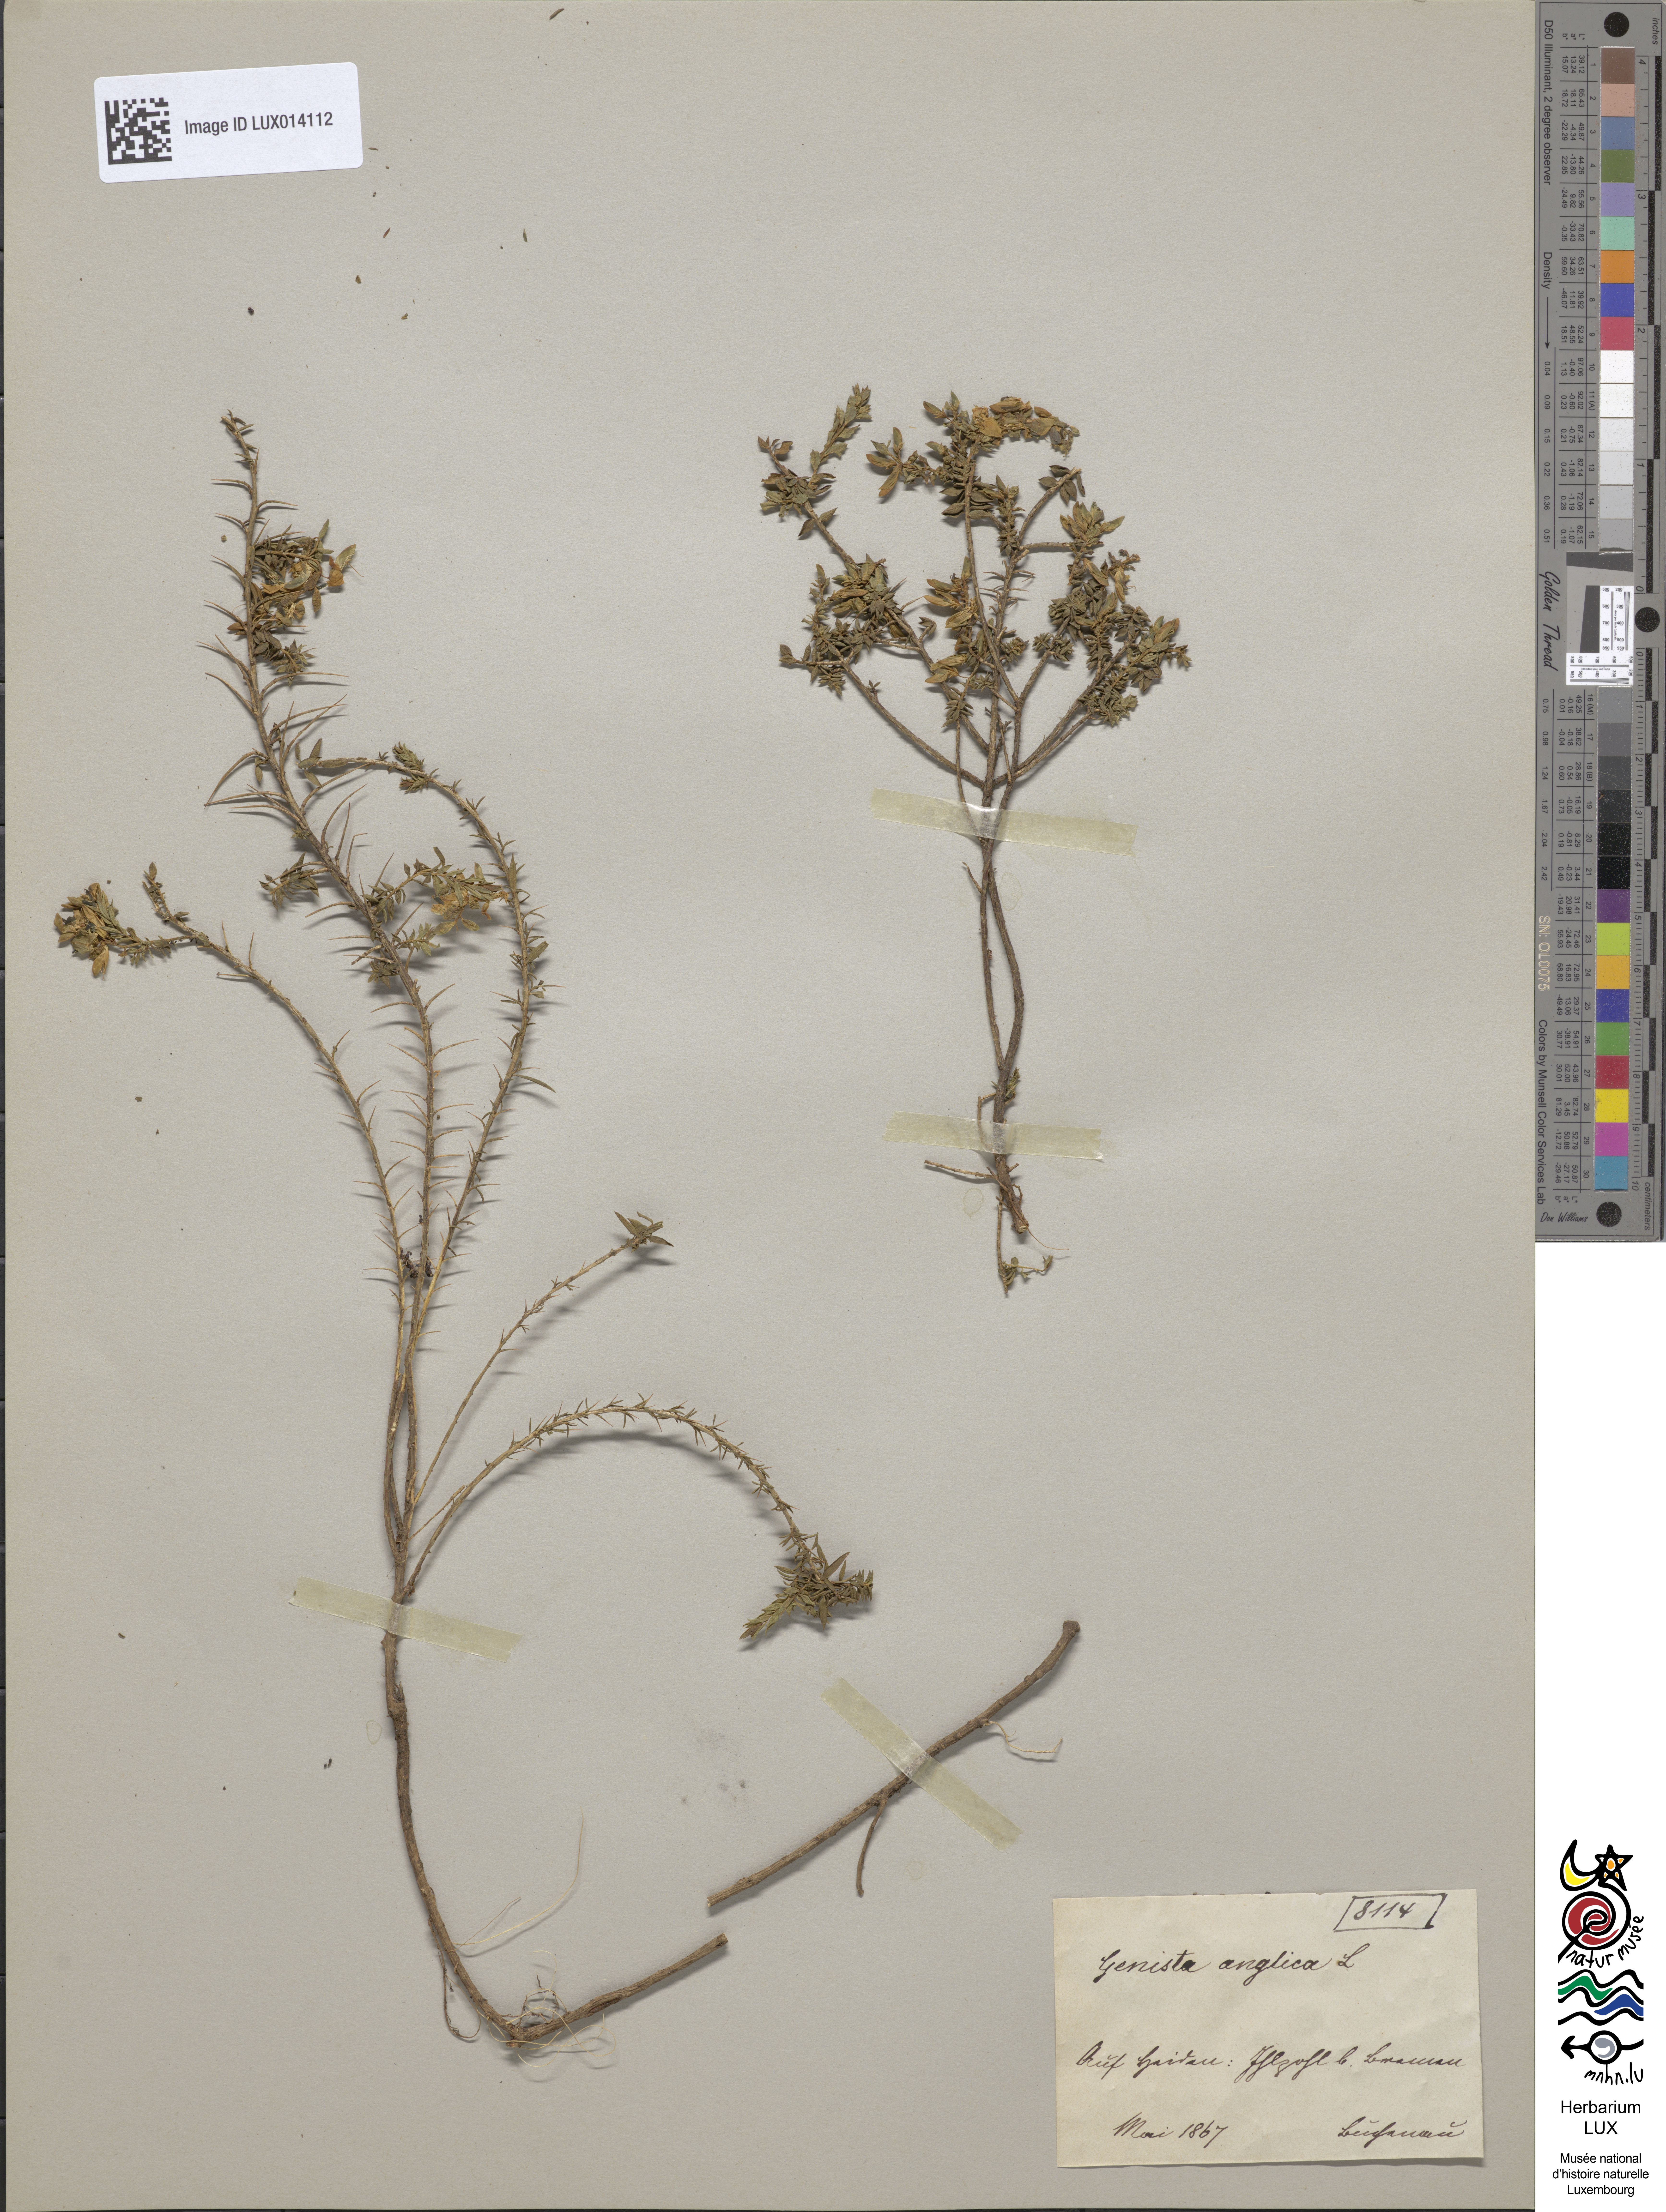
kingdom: Plantae
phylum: Tracheophyta
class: Magnoliopsida
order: Fabales
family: Fabaceae
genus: Genista
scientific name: Genista anglica
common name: Petty whin
